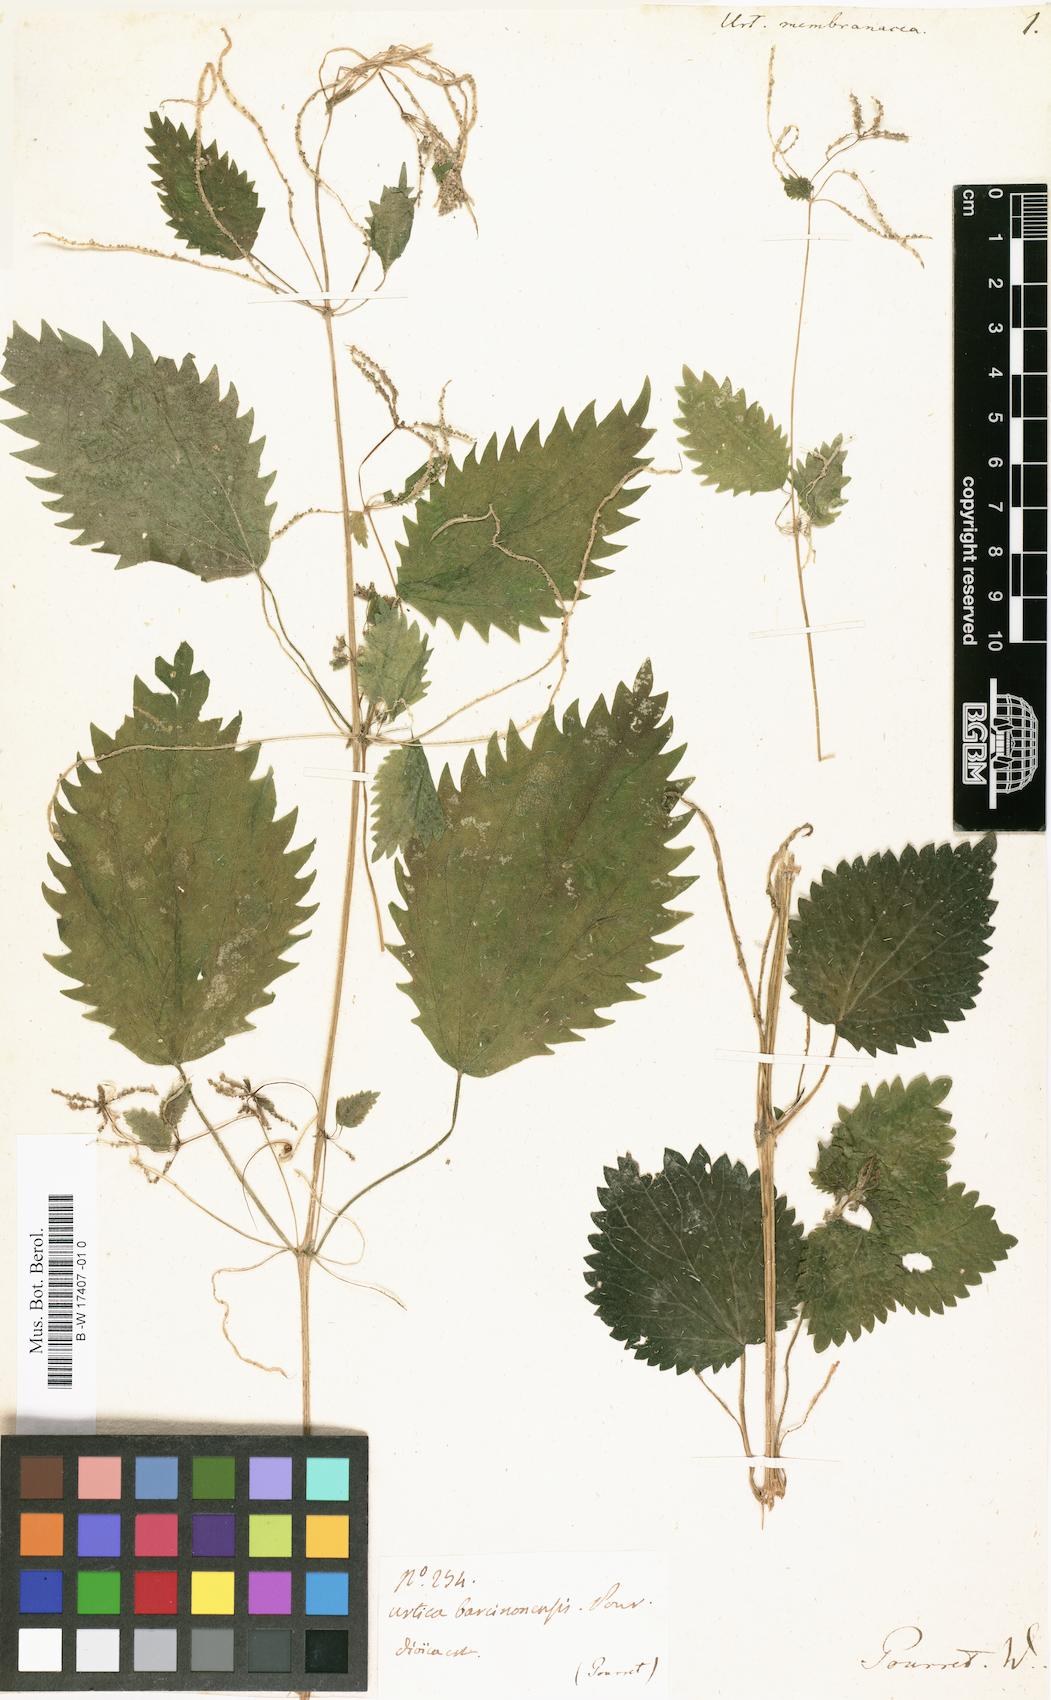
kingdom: Plantae
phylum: Tracheophyta
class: Magnoliopsida
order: Rosales
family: Urticaceae
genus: Urtica
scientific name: Urtica membranacea
